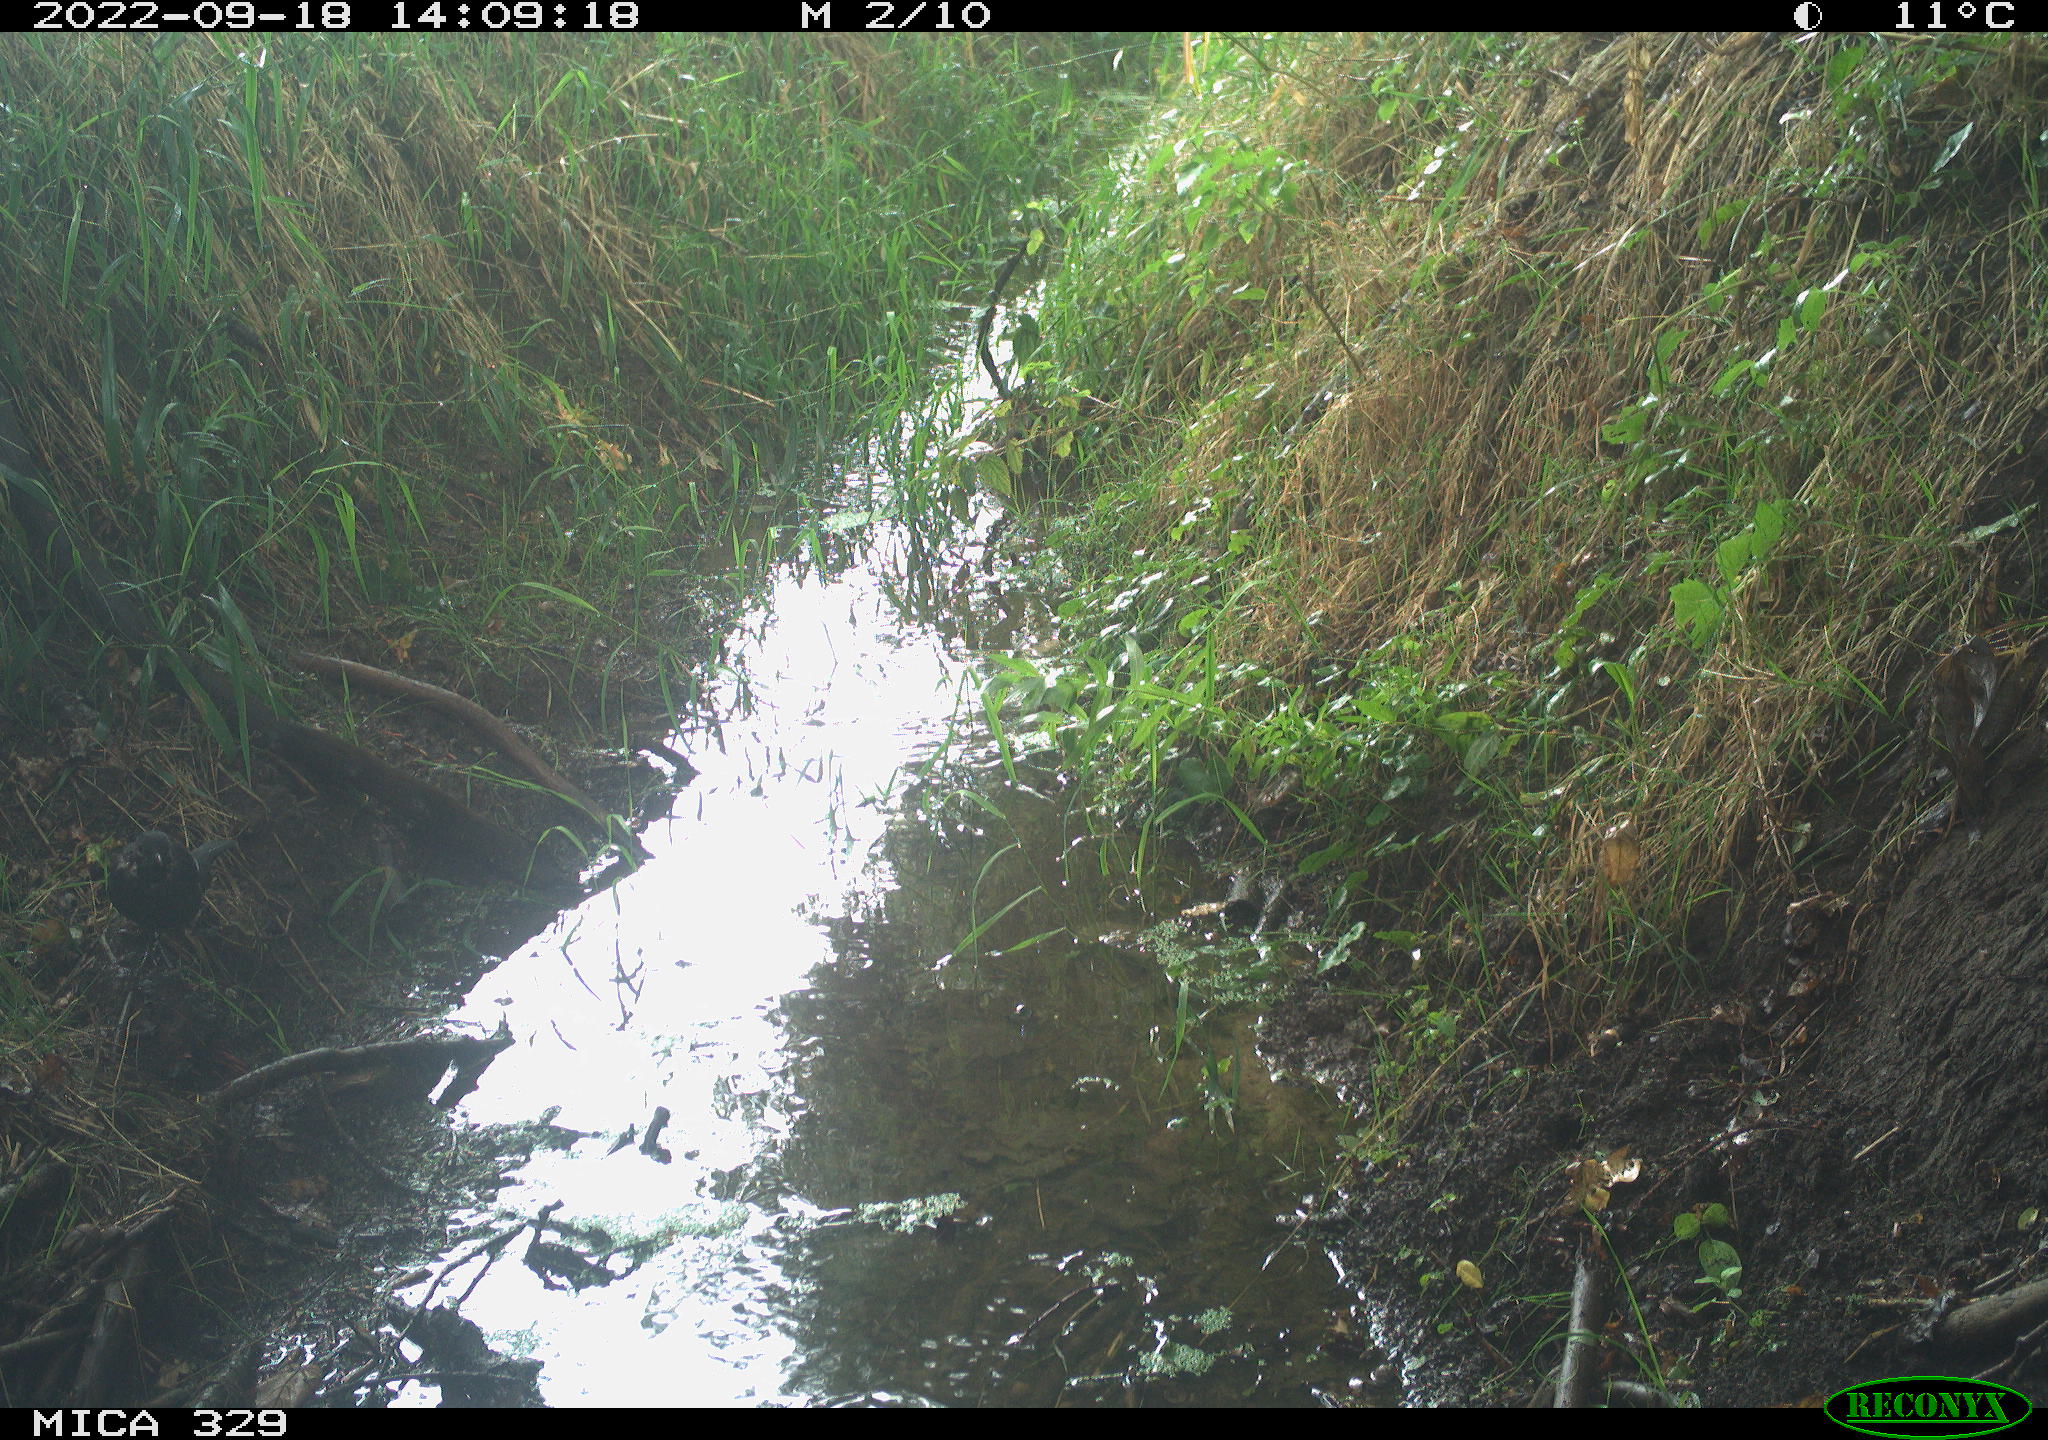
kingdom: Animalia
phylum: Chordata
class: Aves
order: Passeriformes
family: Turdidae
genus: Turdus
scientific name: Turdus merula
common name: Common blackbird
